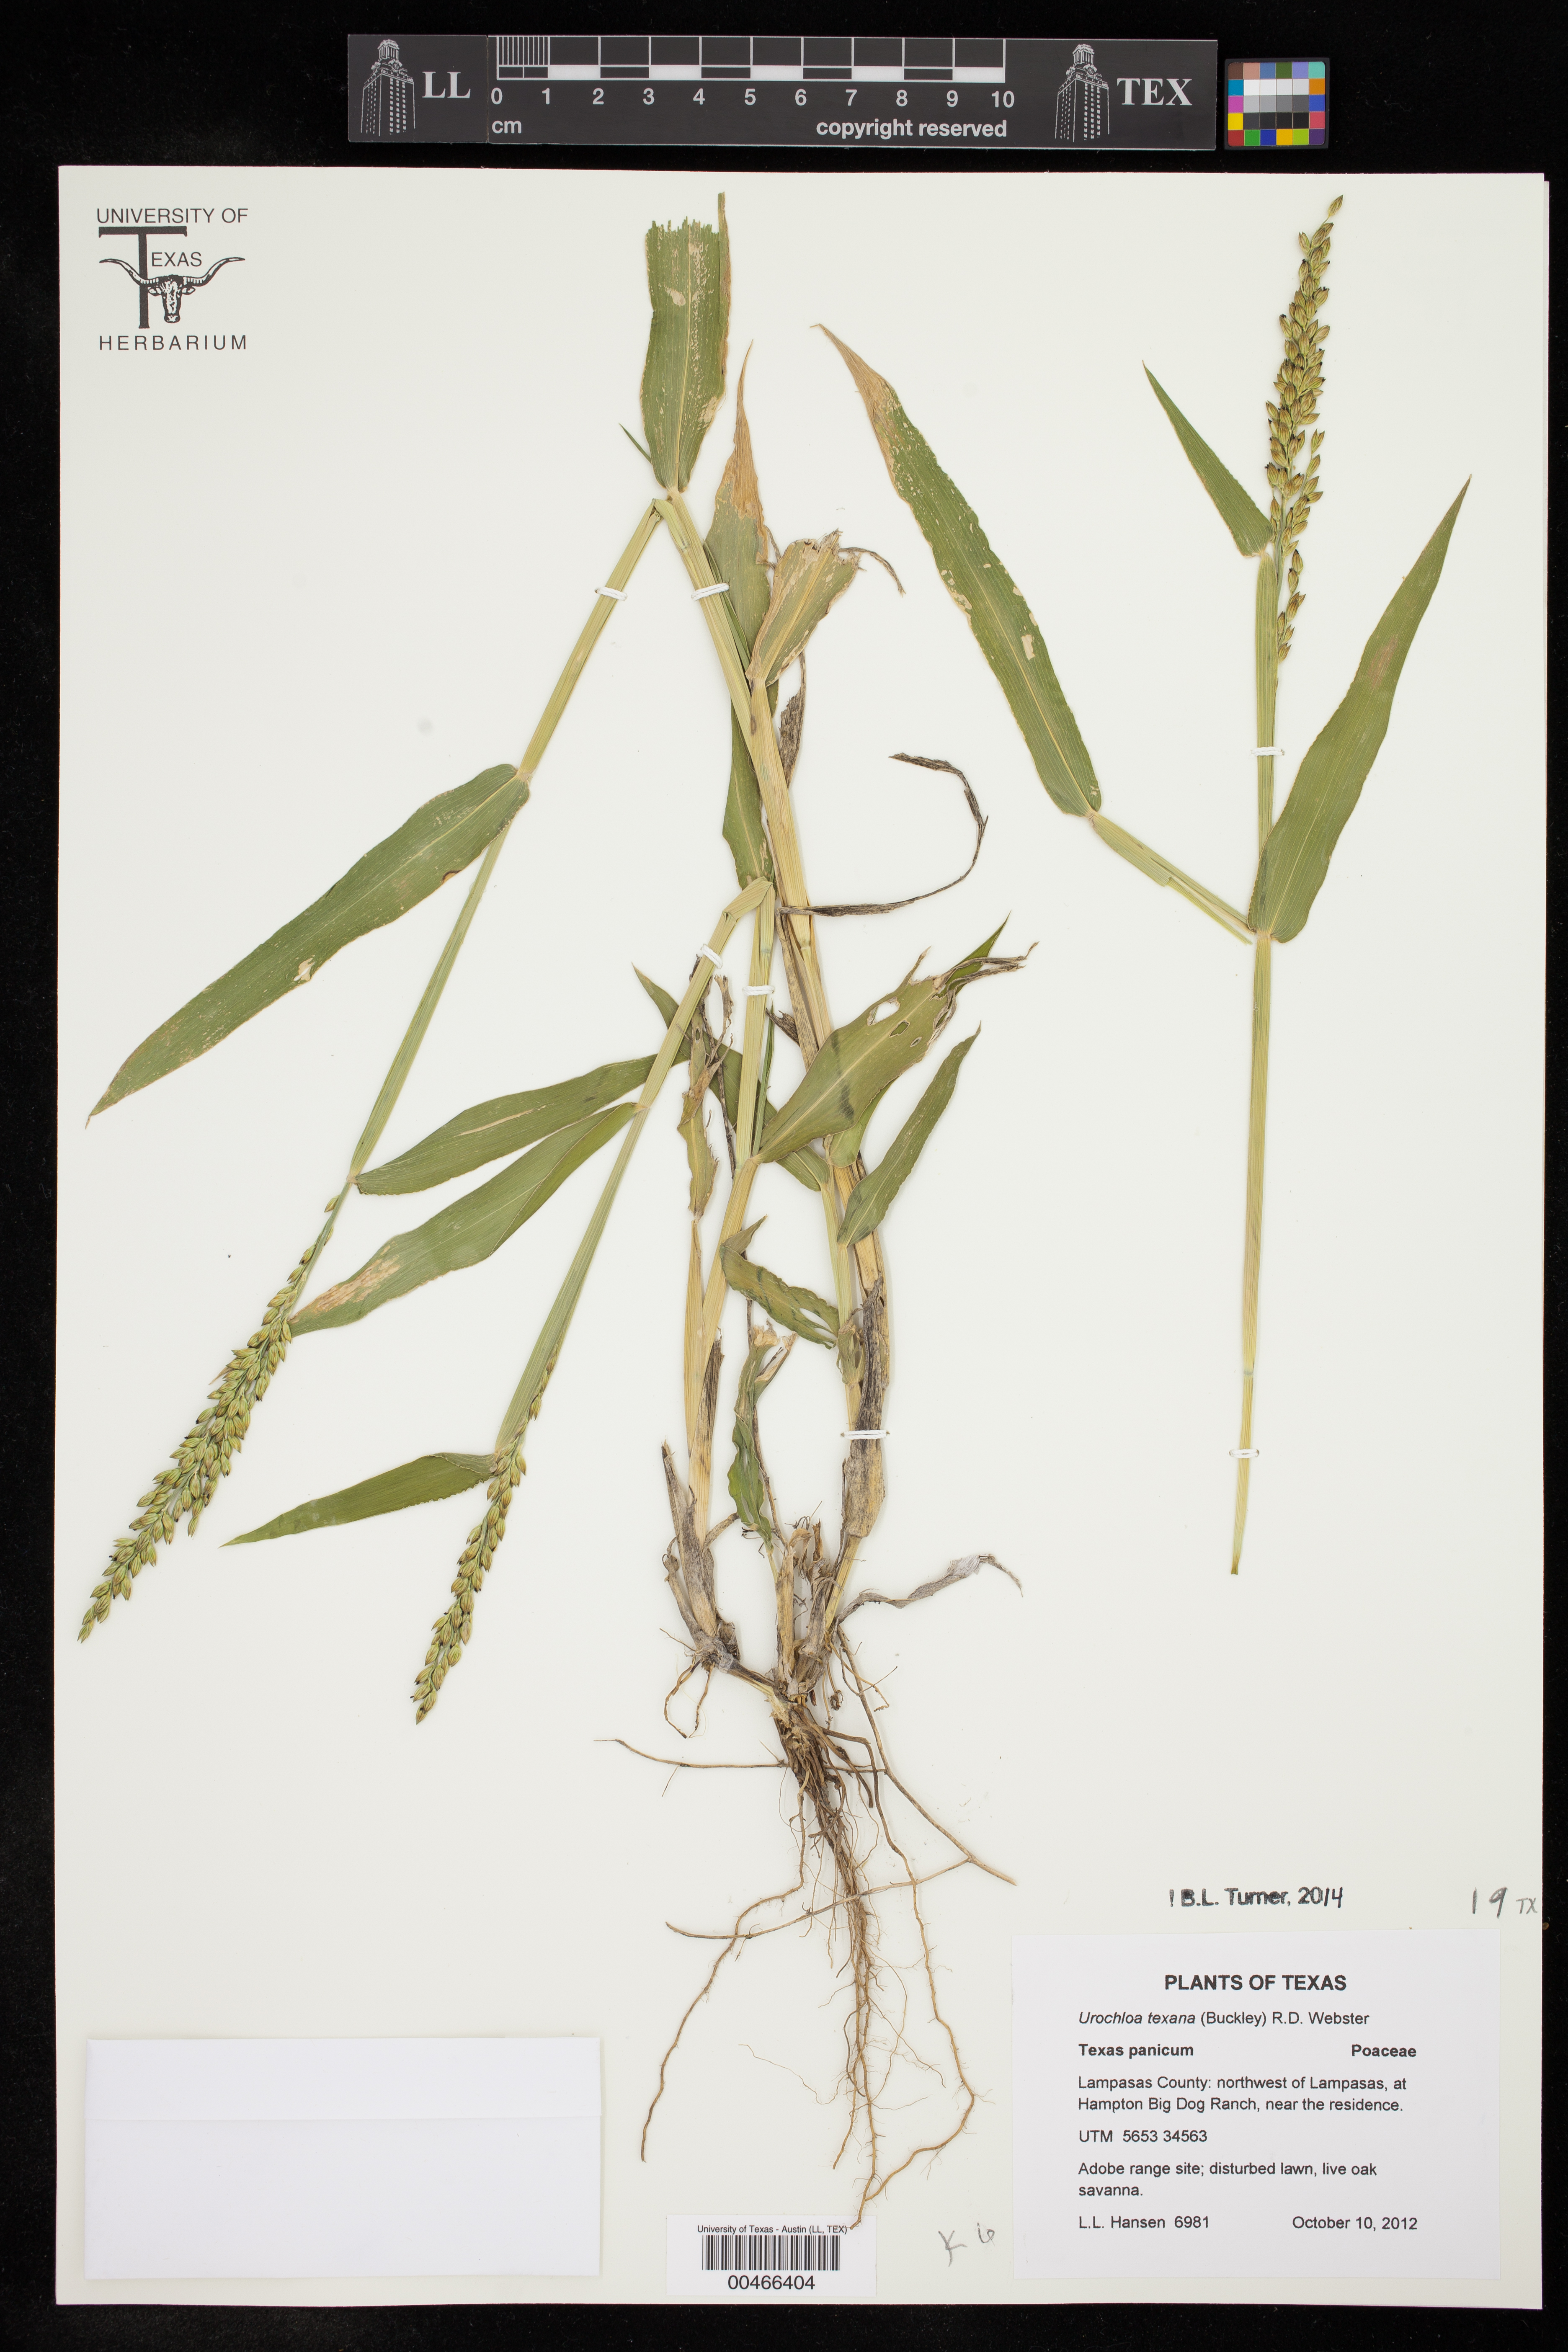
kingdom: Plantae
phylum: Tracheophyta
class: Liliopsida
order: Poales
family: Poaceae
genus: Urochloa
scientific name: Urochloa texana
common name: Texas millet
